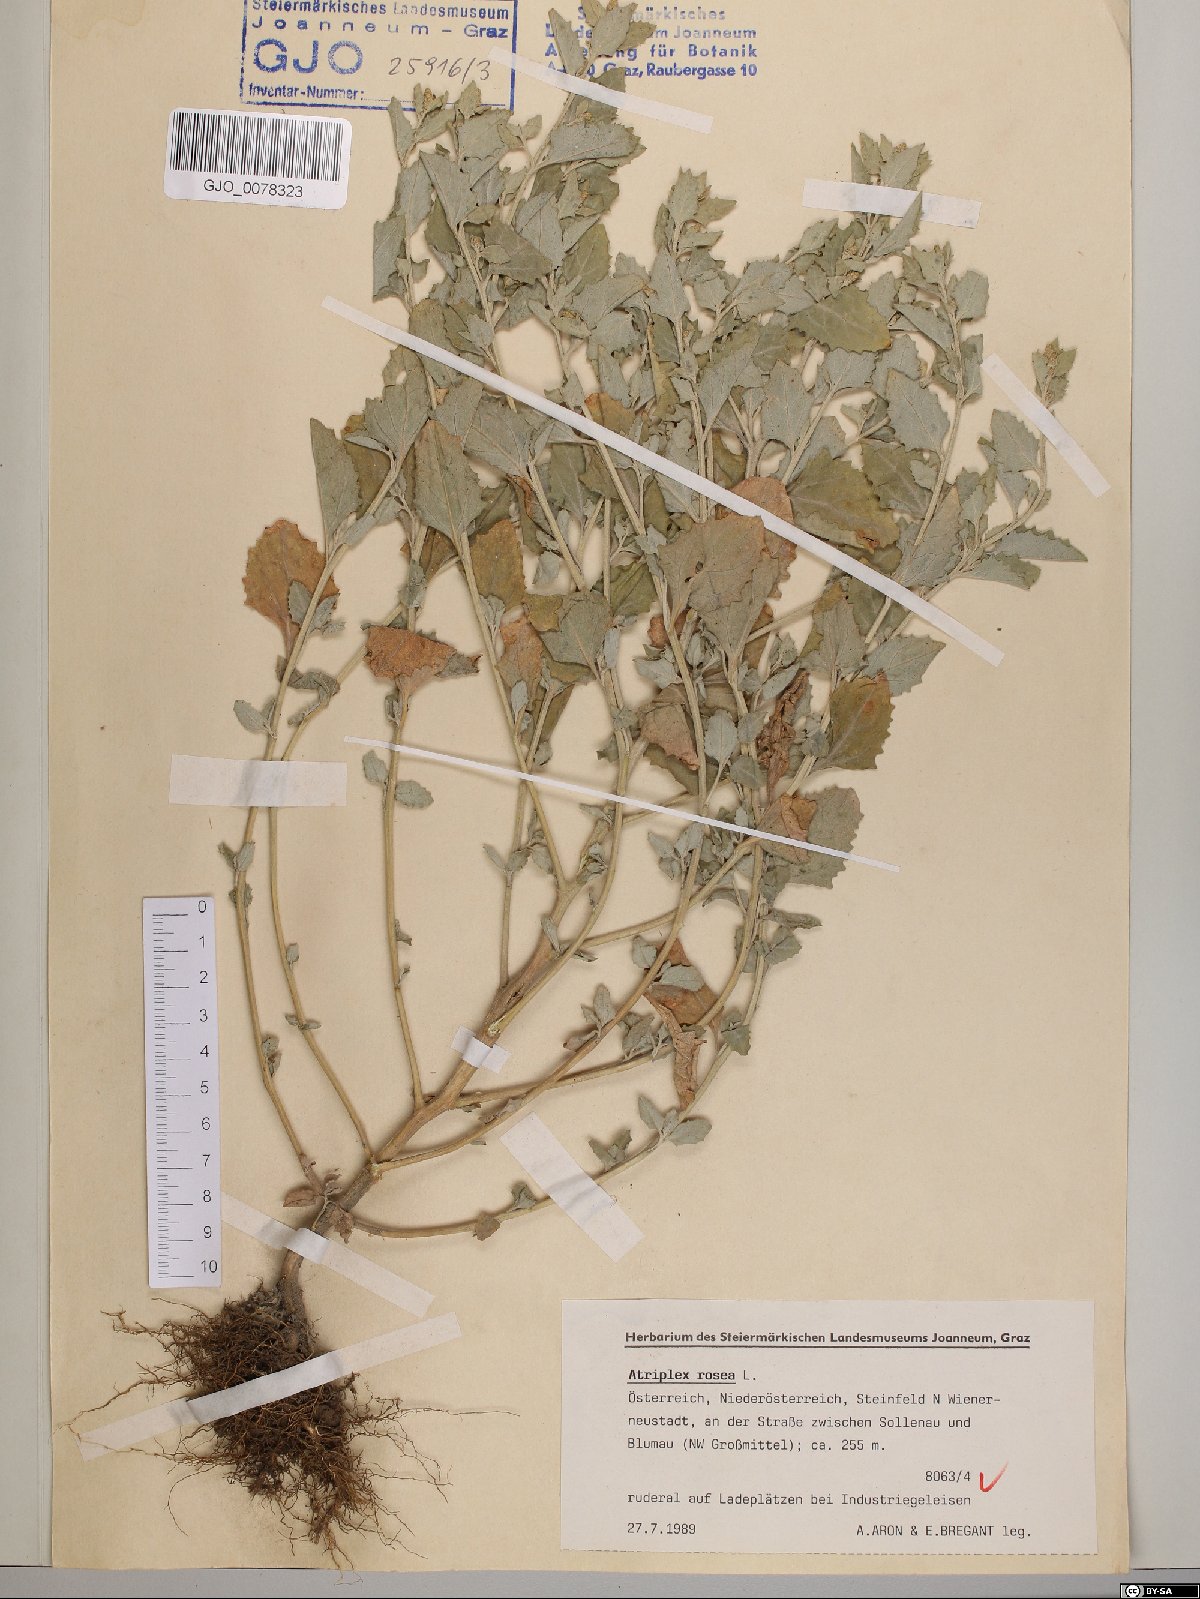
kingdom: Plantae
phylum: Tracheophyta
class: Magnoliopsida
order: Caryophyllales
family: Amaranthaceae
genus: Atriplex
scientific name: Atriplex rosea
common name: Tumbling saltweed
